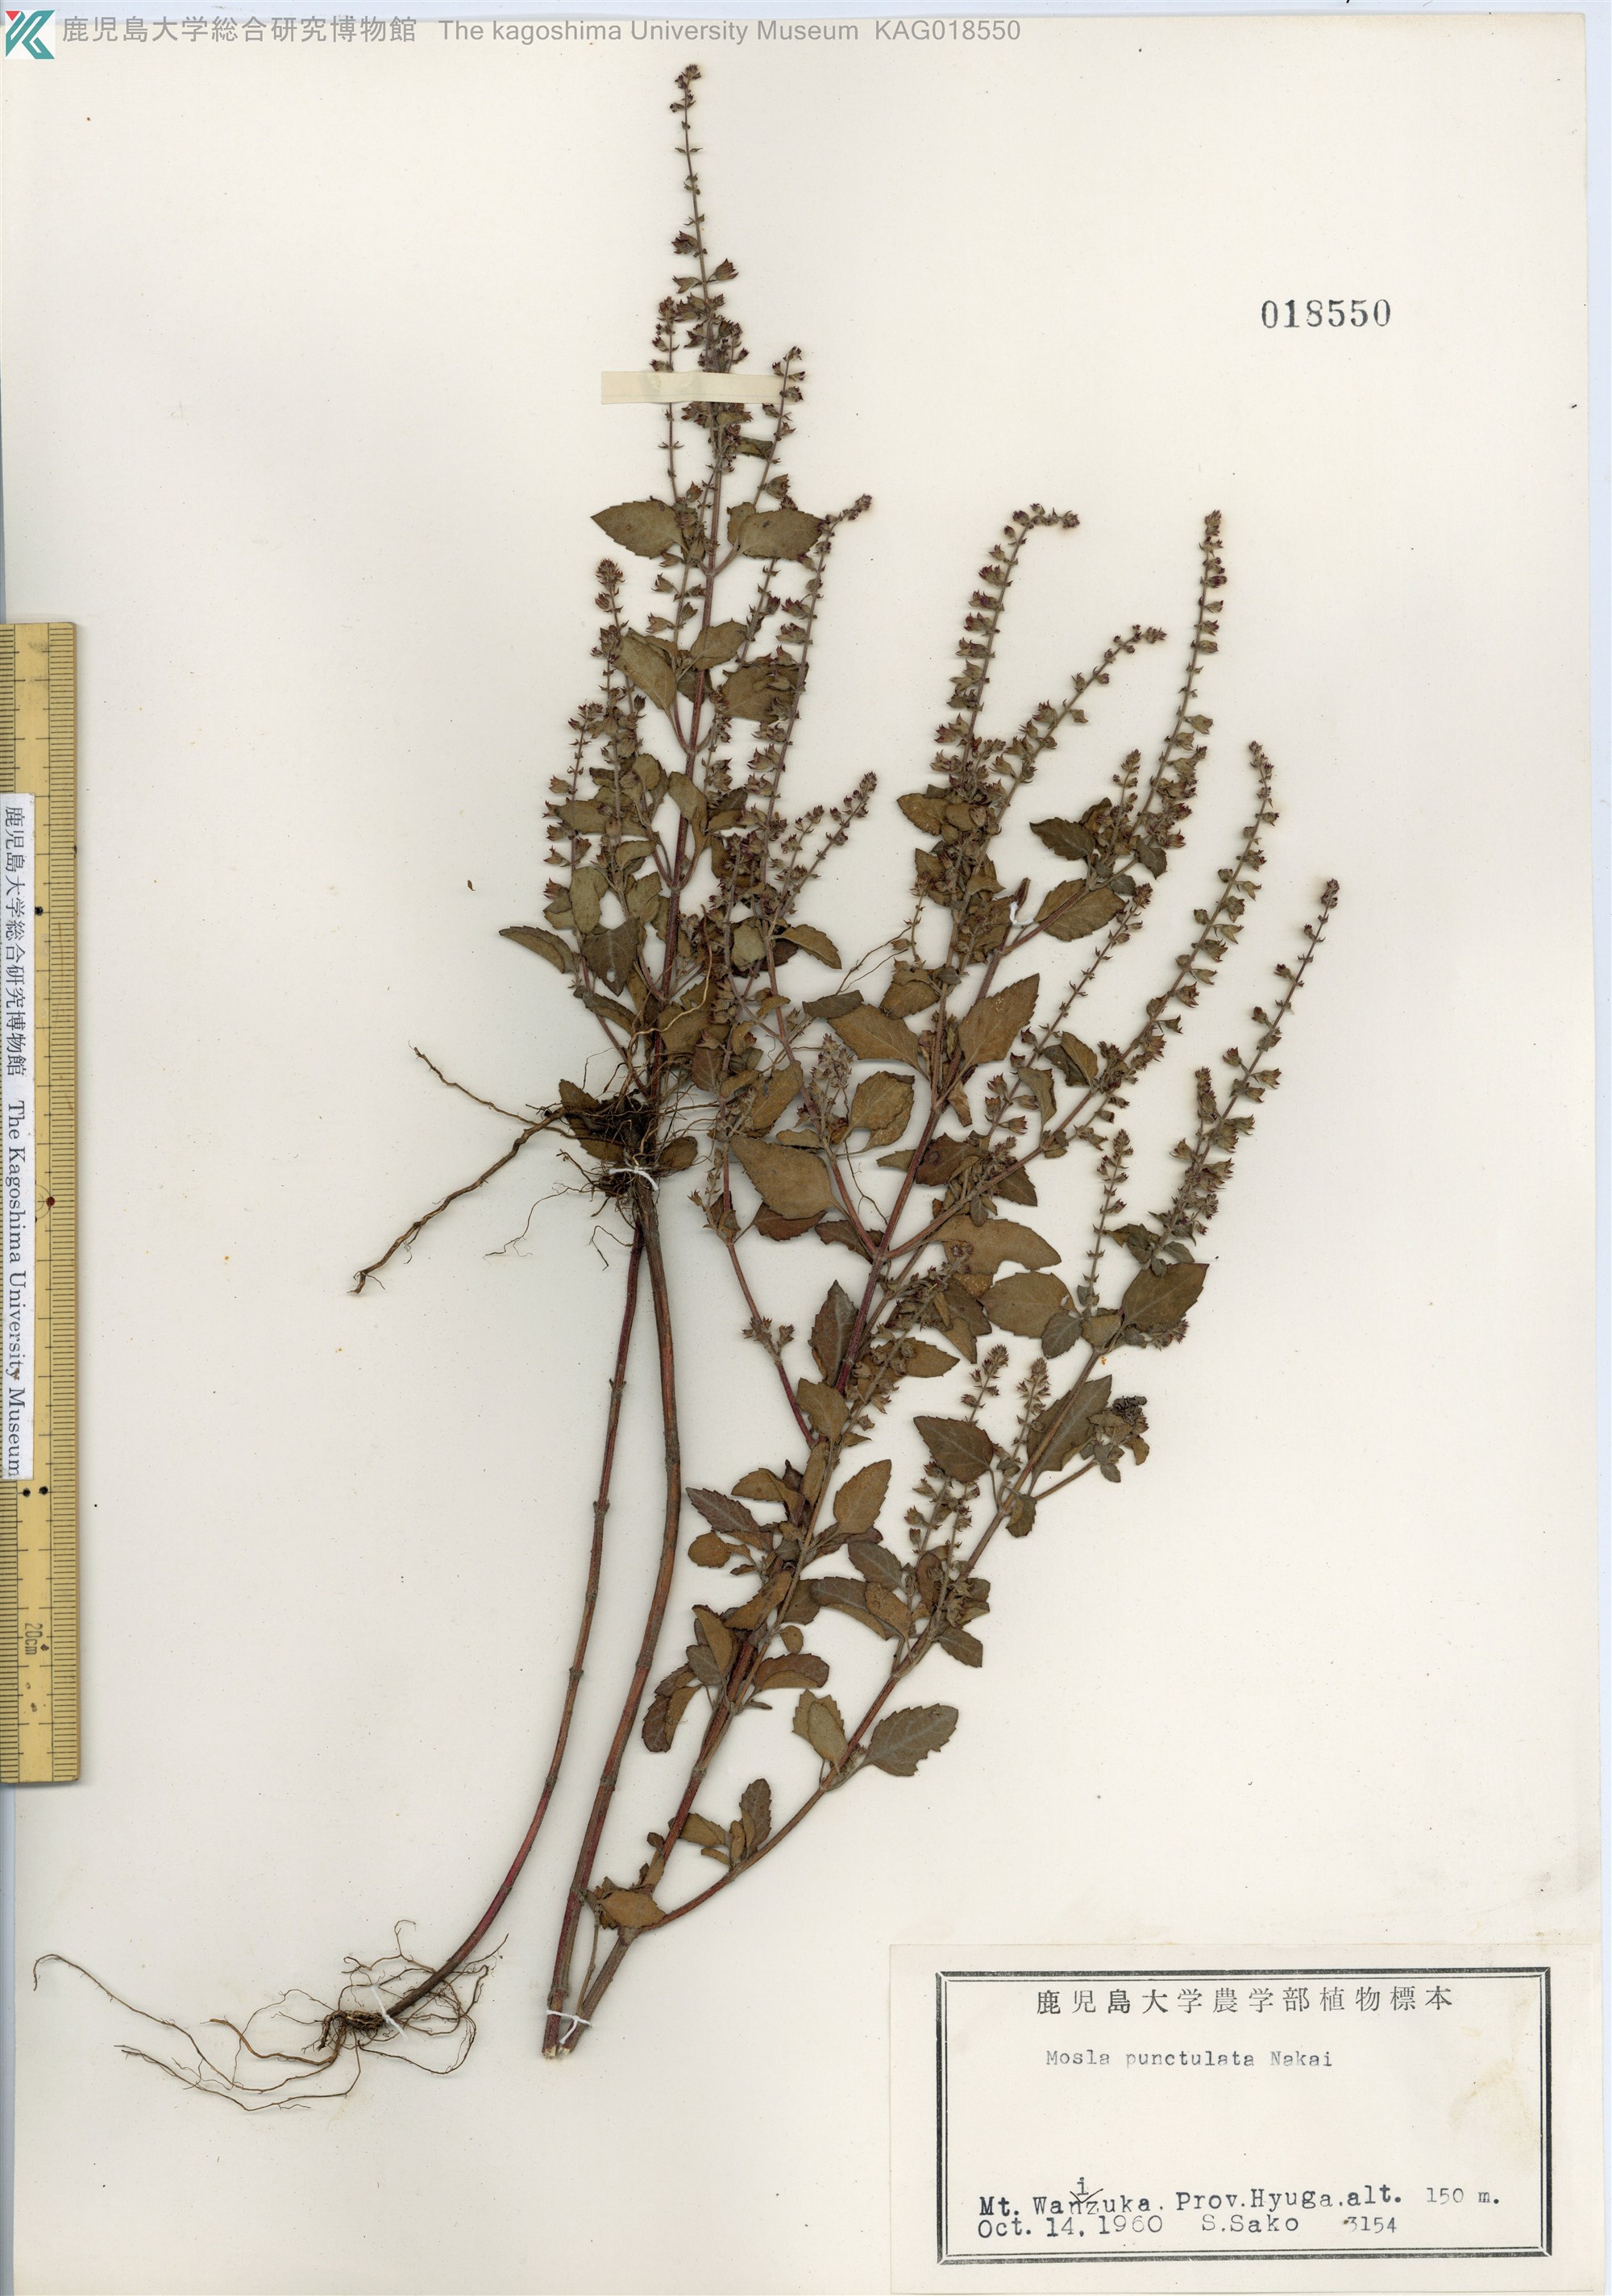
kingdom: Plantae
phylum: Tracheophyta
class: Magnoliopsida
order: Lamiales
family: Lamiaceae
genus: Mosla
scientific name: Mosla scabra
